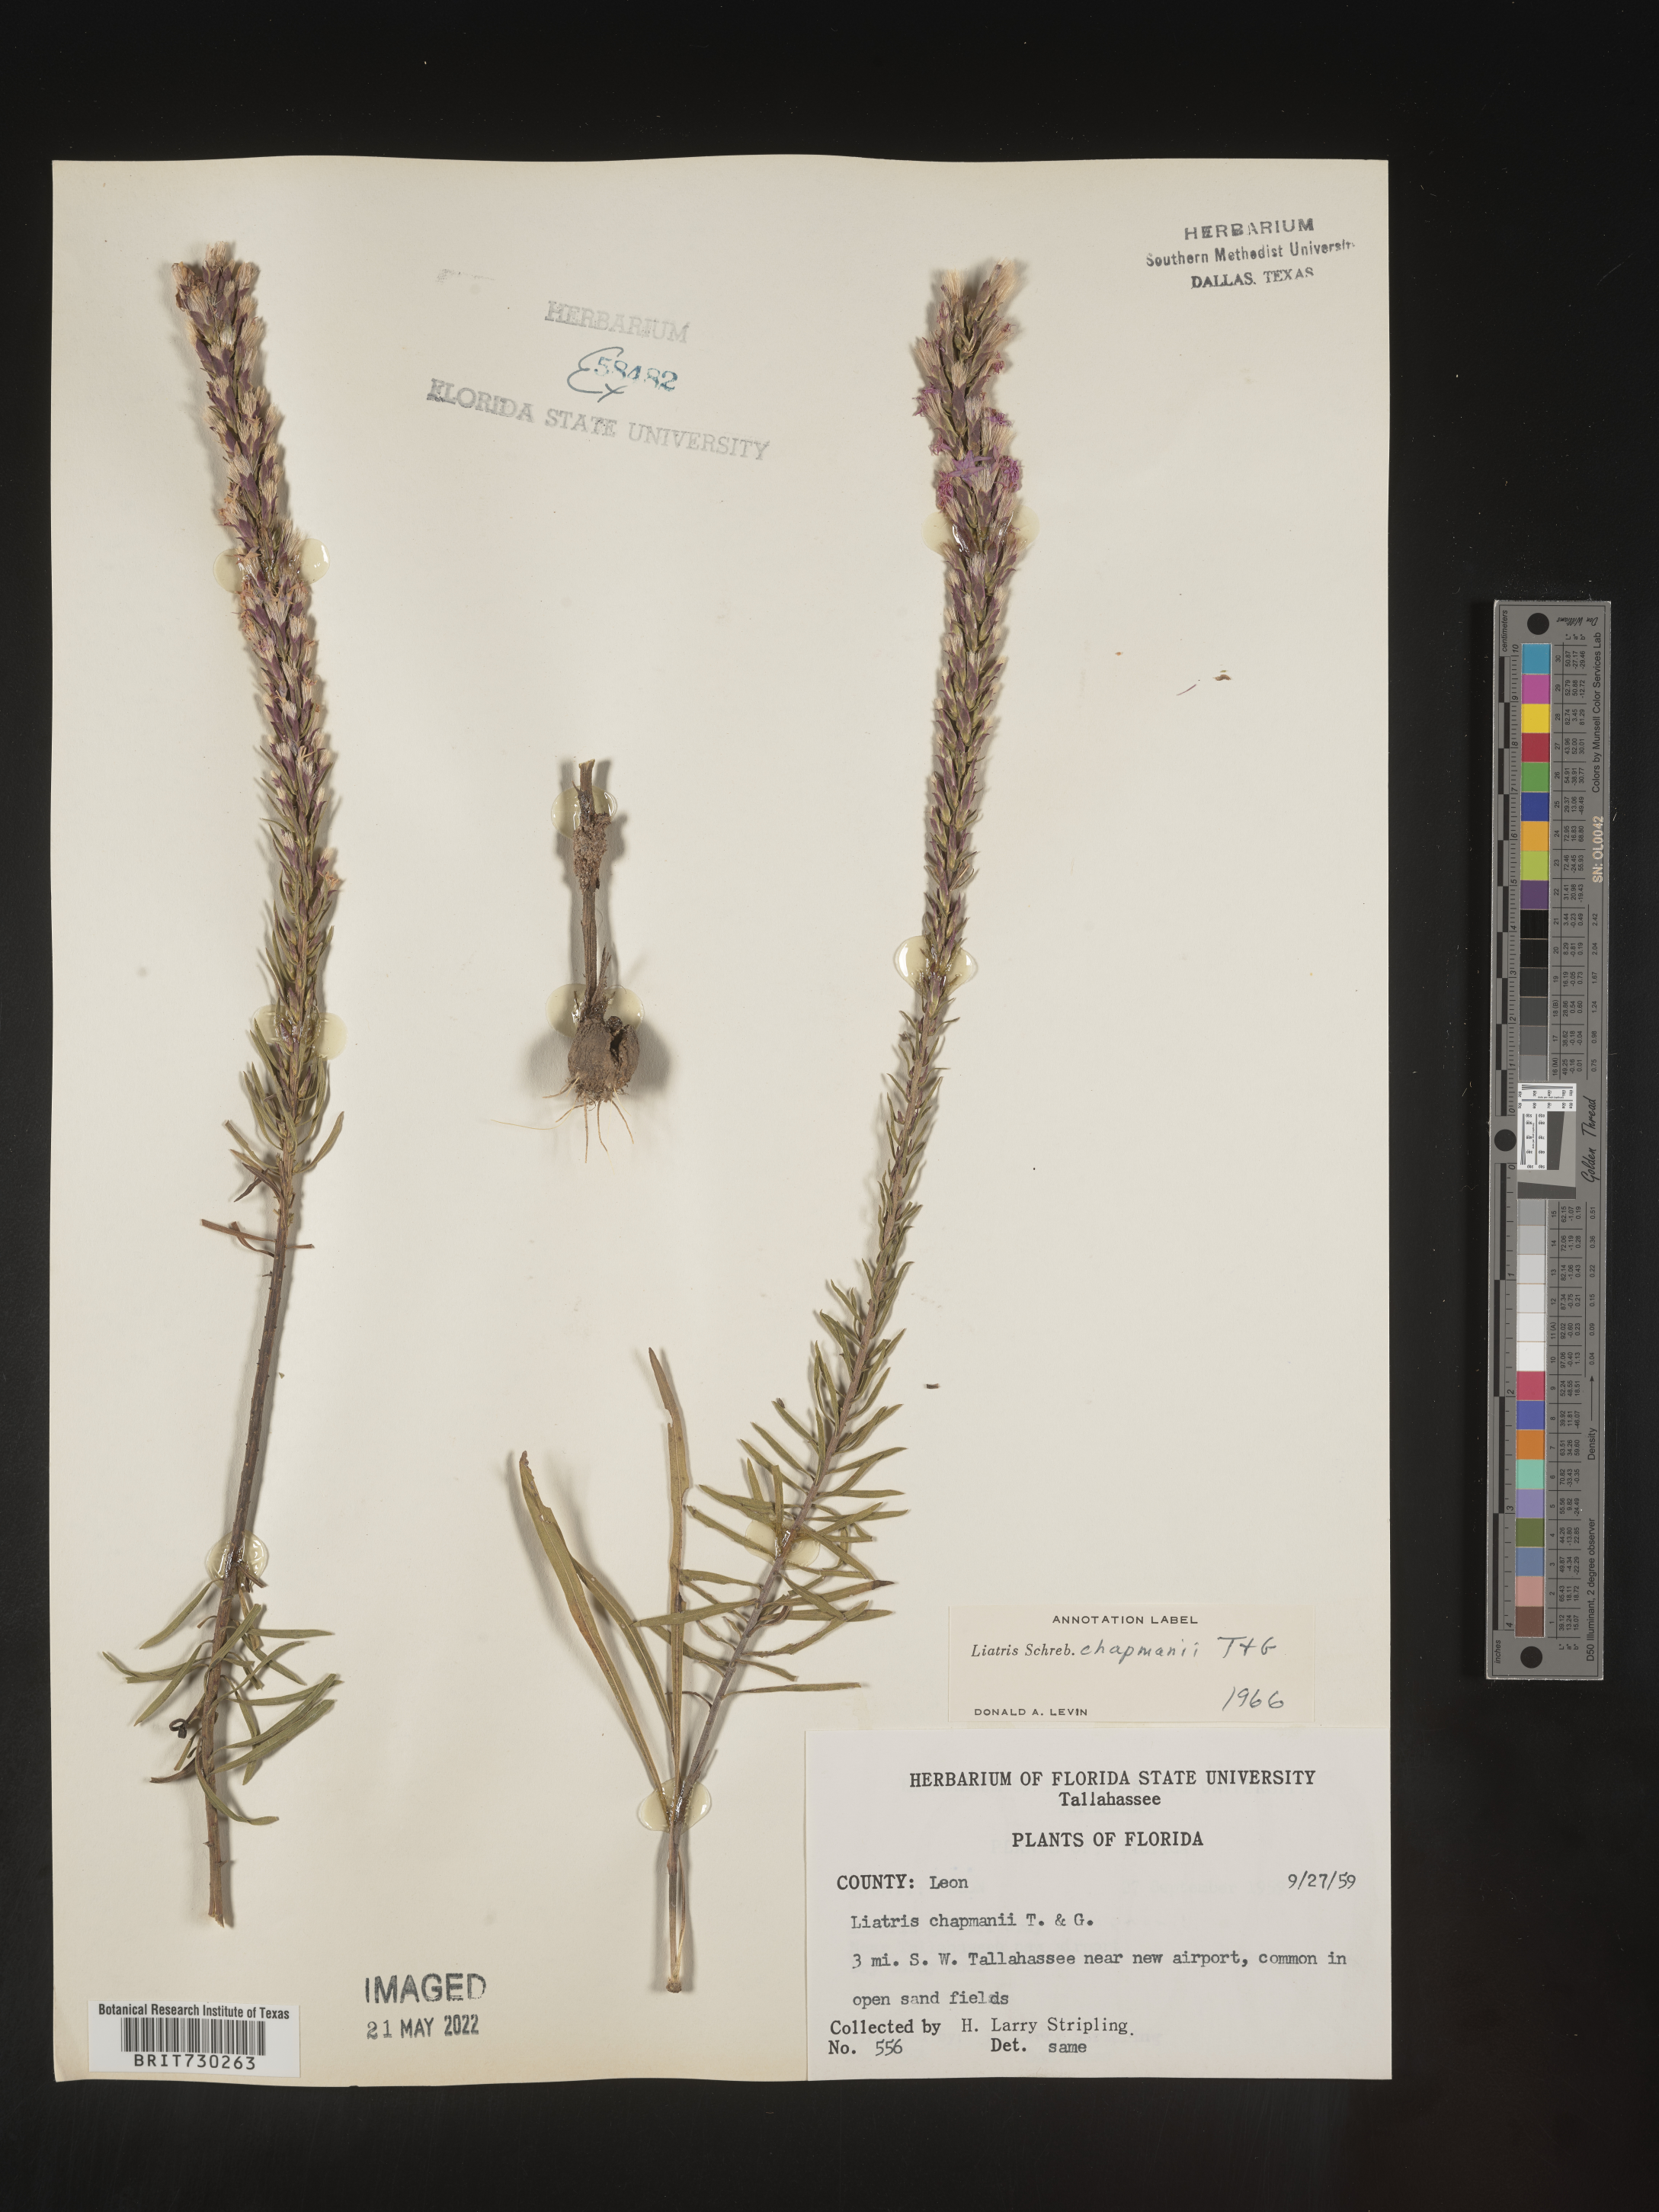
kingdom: Plantae
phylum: Tracheophyta
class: Magnoliopsida
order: Asterales
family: Asteraceae
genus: Liatris
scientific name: Liatris chapmanii
